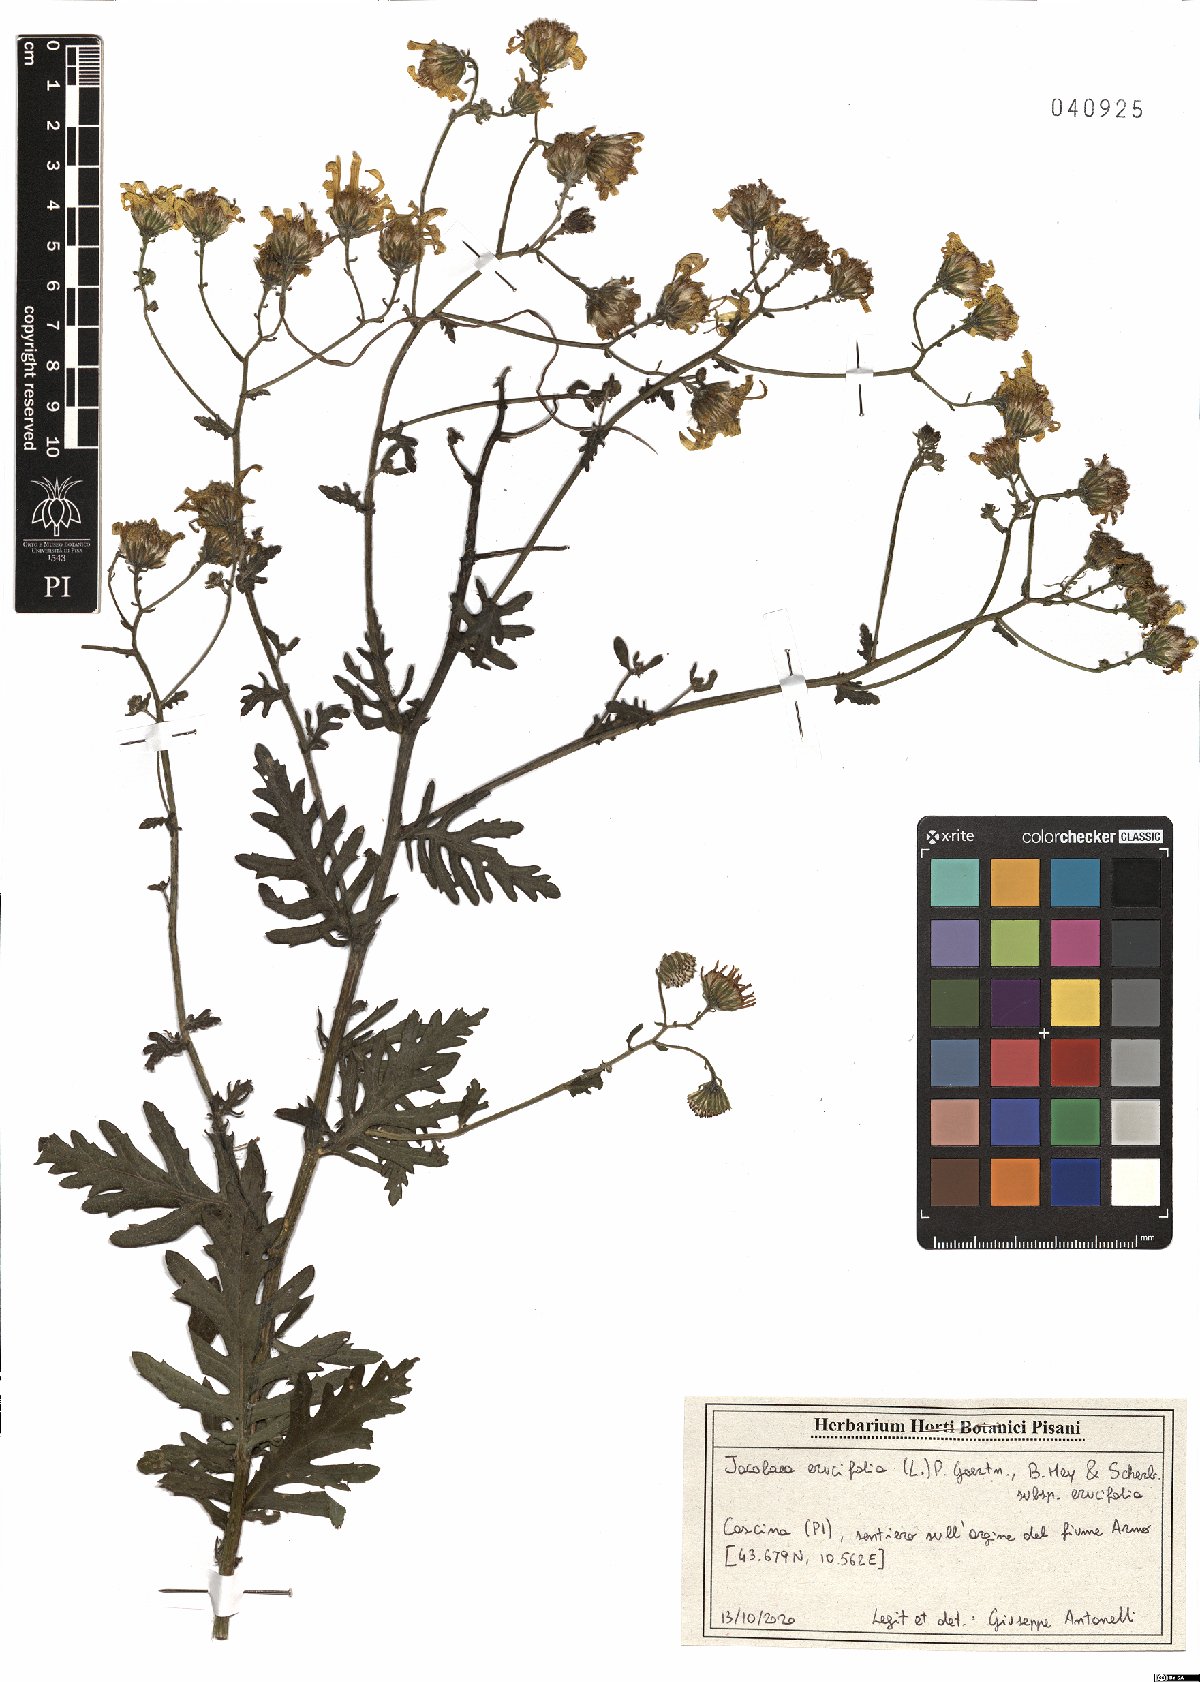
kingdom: Plantae
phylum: Tracheophyta
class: Magnoliopsida
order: Asterales
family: Asteraceae
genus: Jacobaea
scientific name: Jacobaea erucifolia
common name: Hoary ragwort
